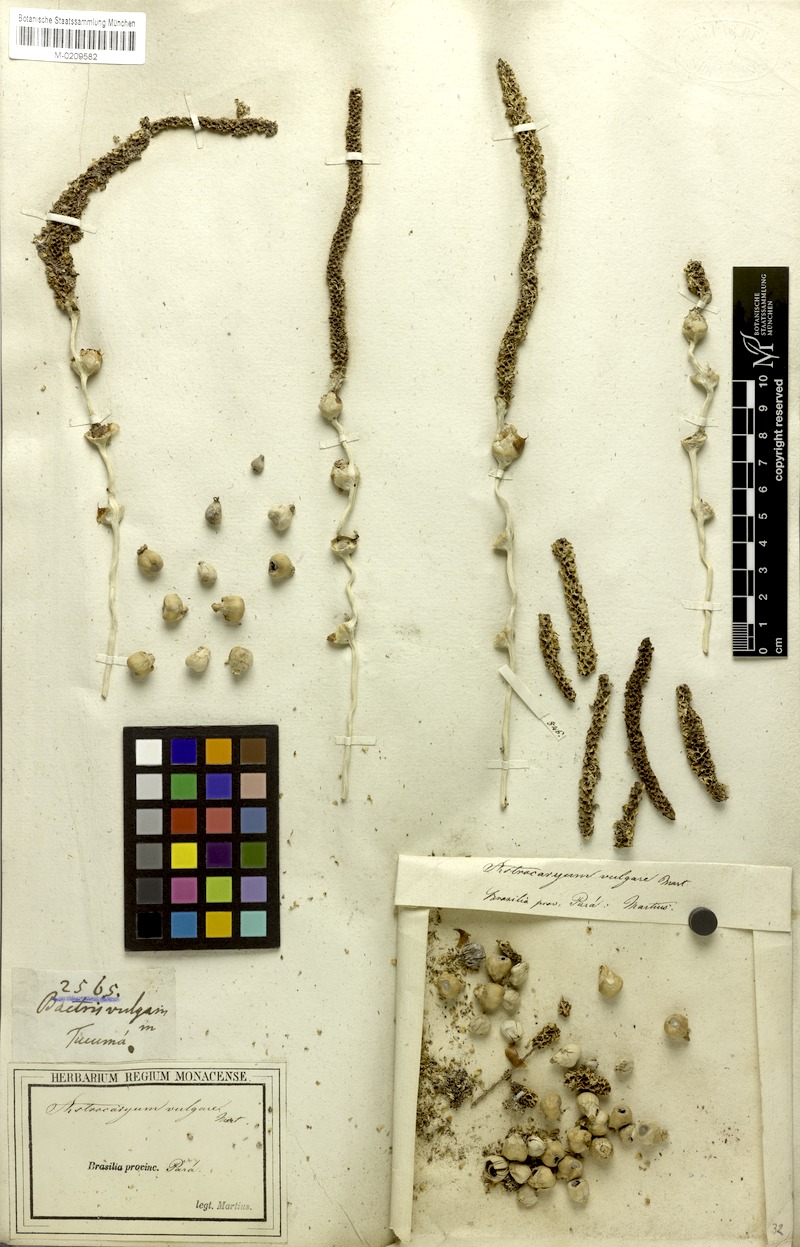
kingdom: Plantae
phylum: Tracheophyta
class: Liliopsida
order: Arecales
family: Arecaceae
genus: Astrocaryum
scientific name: Astrocaryum vulgare
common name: Tucum palm
